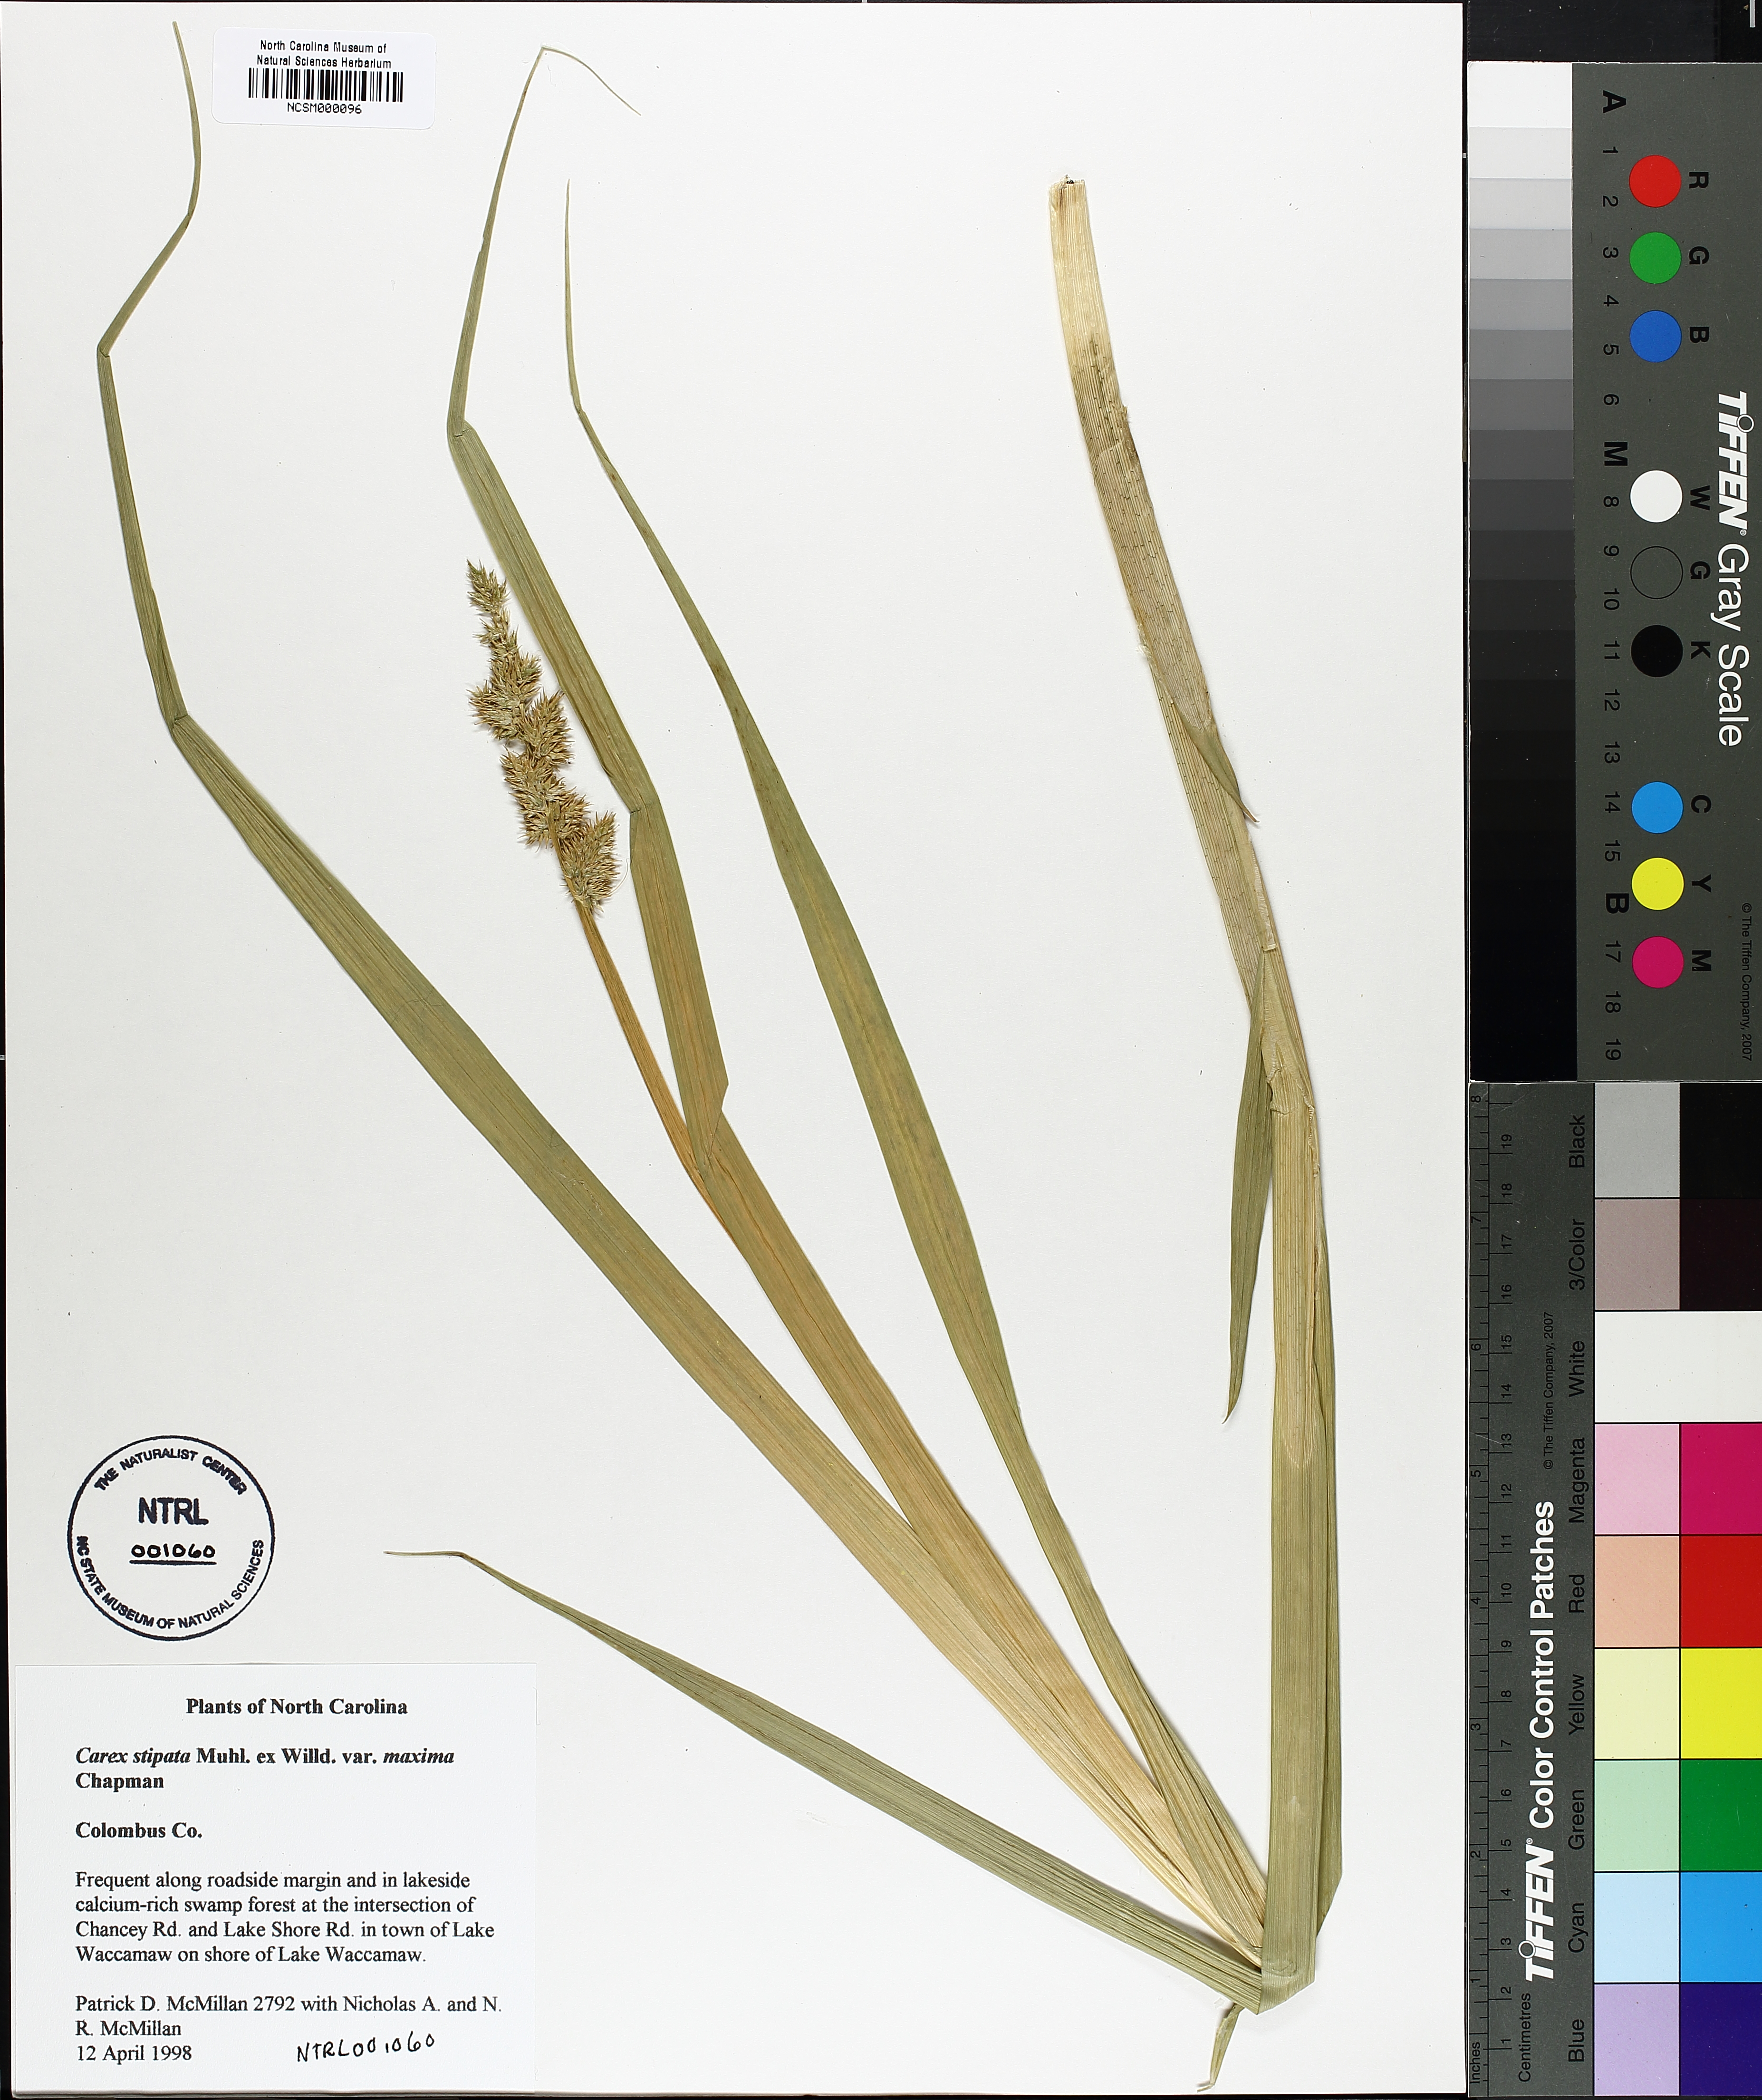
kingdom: Plantae
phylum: Tracheophyta
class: Liliopsida
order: Poales
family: Cyperaceae
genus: Carex
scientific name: Carex stipata
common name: Awl-fruited sedge
